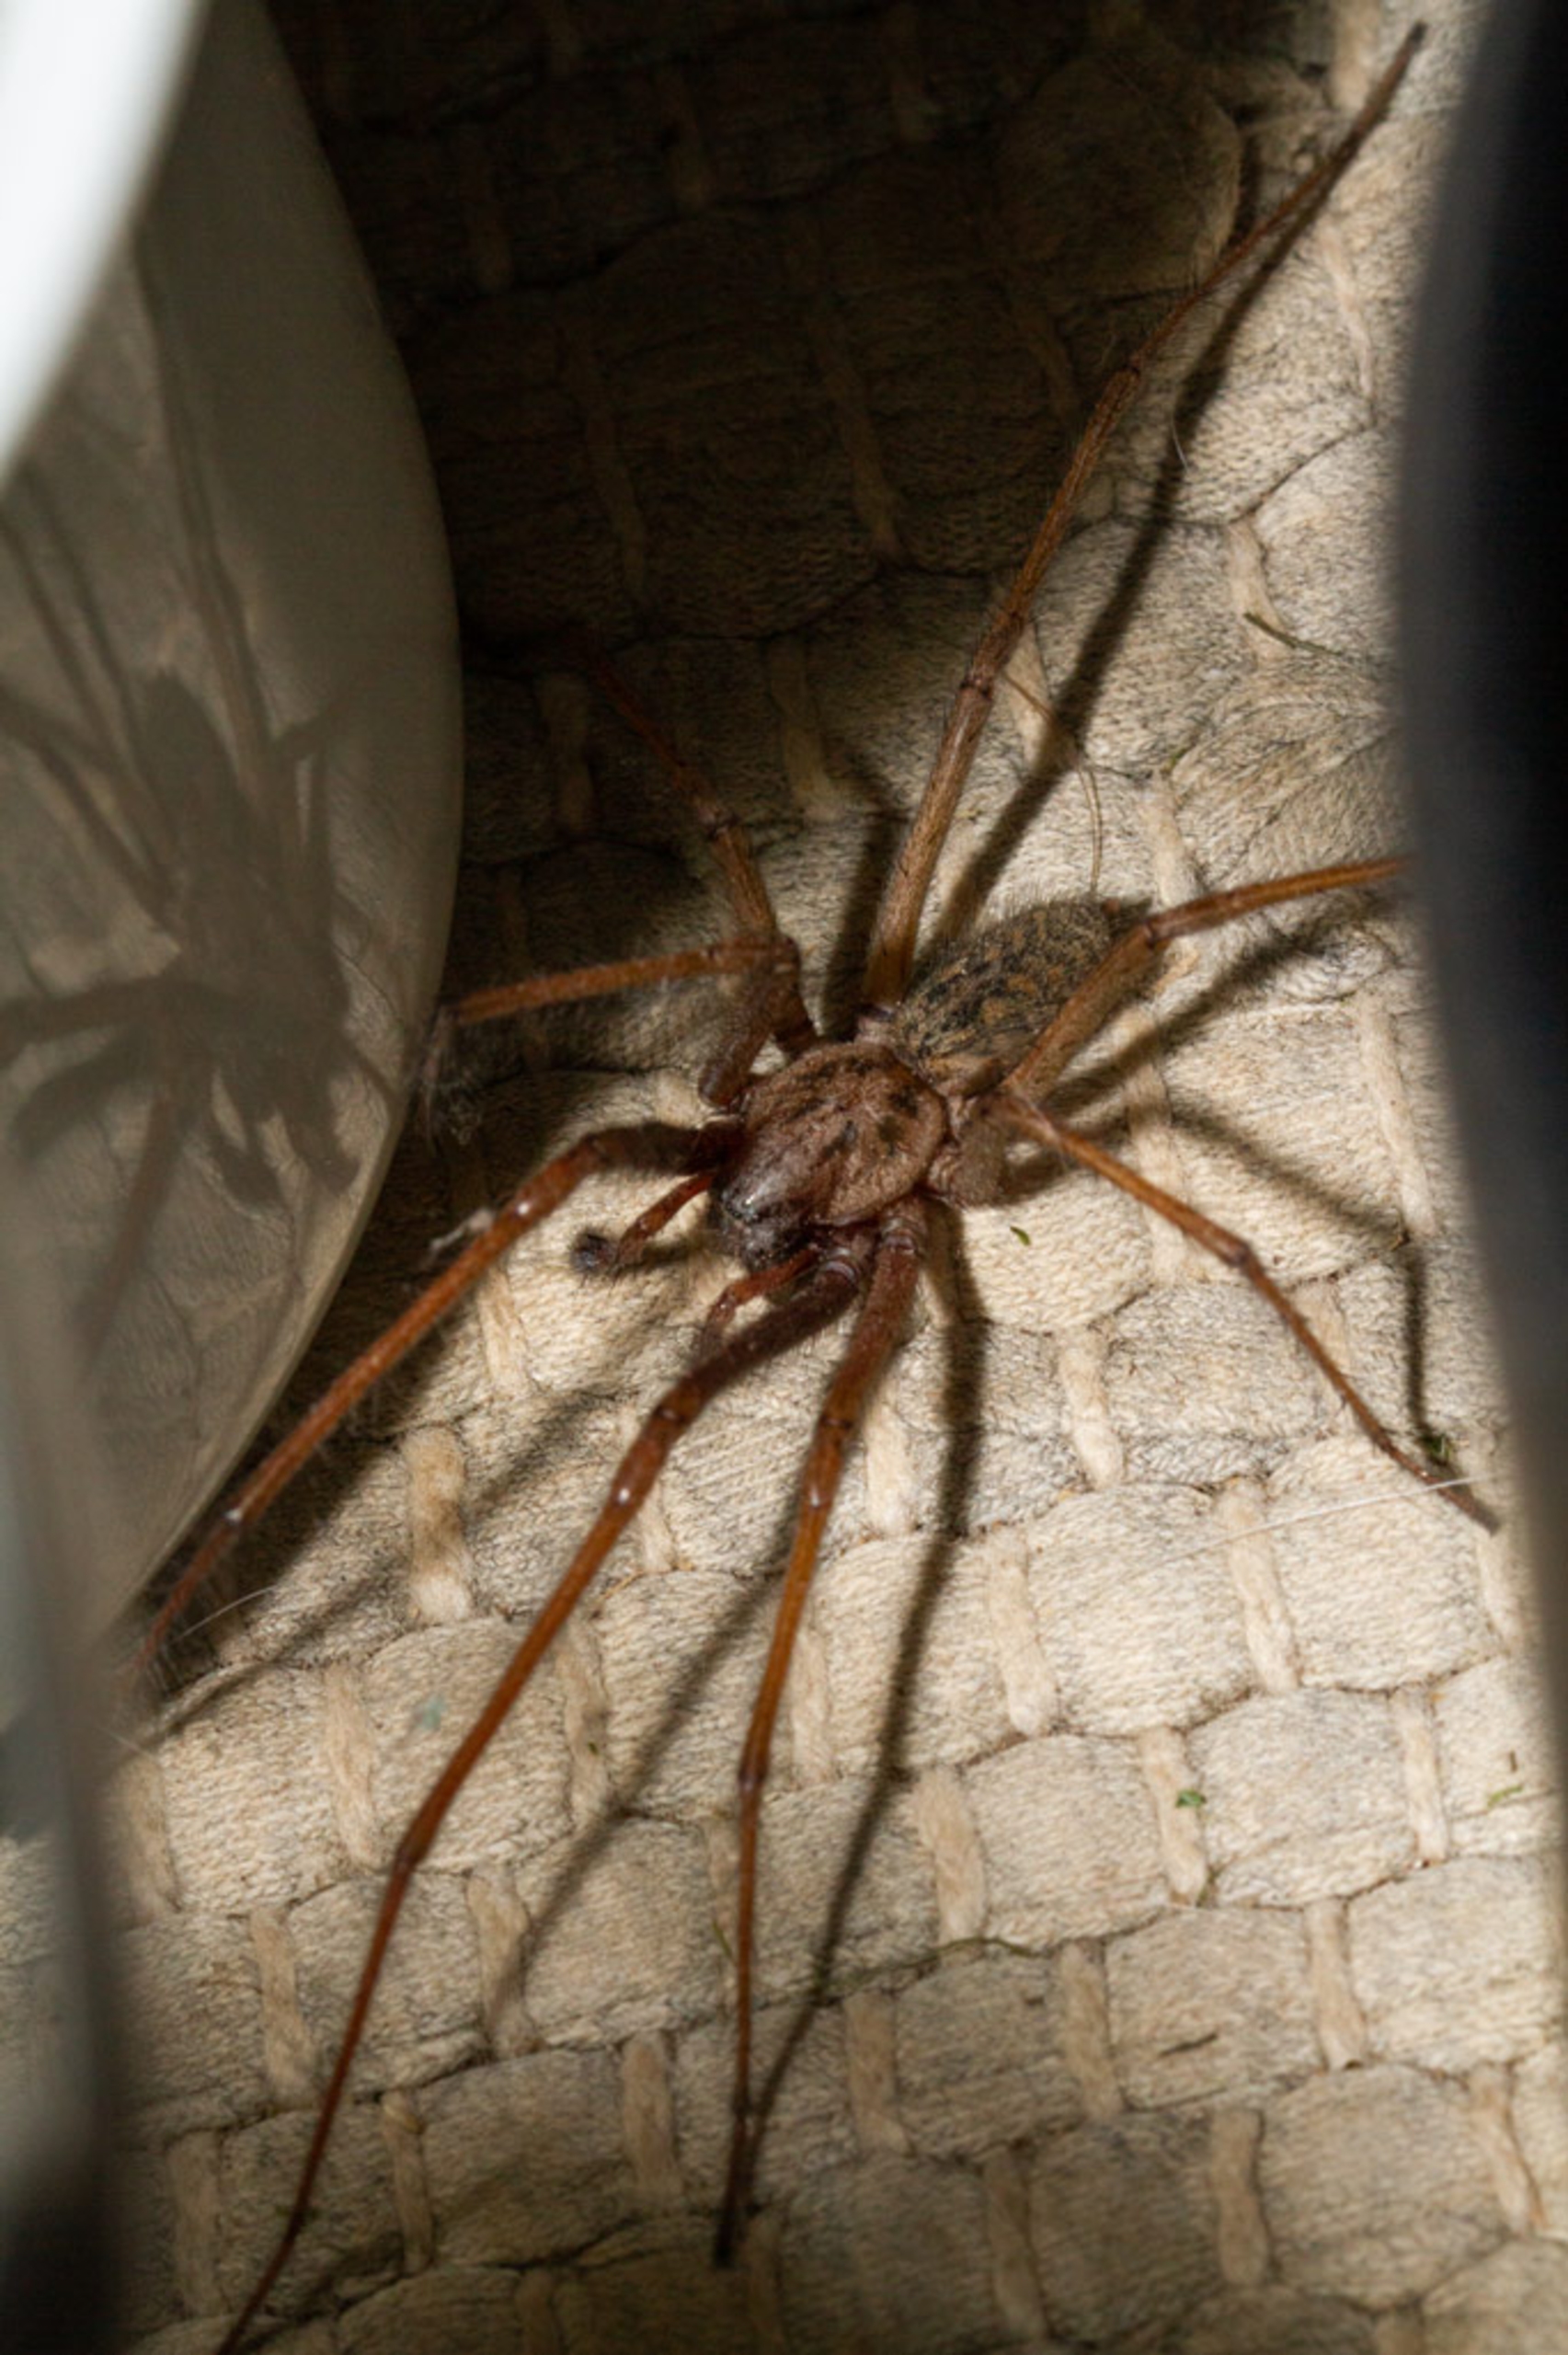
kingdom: Animalia
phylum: Arthropoda
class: Arachnida
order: Araneae
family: Agelenidae
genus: Eratigena
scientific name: Eratigena atrica
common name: Stor husedderkop
